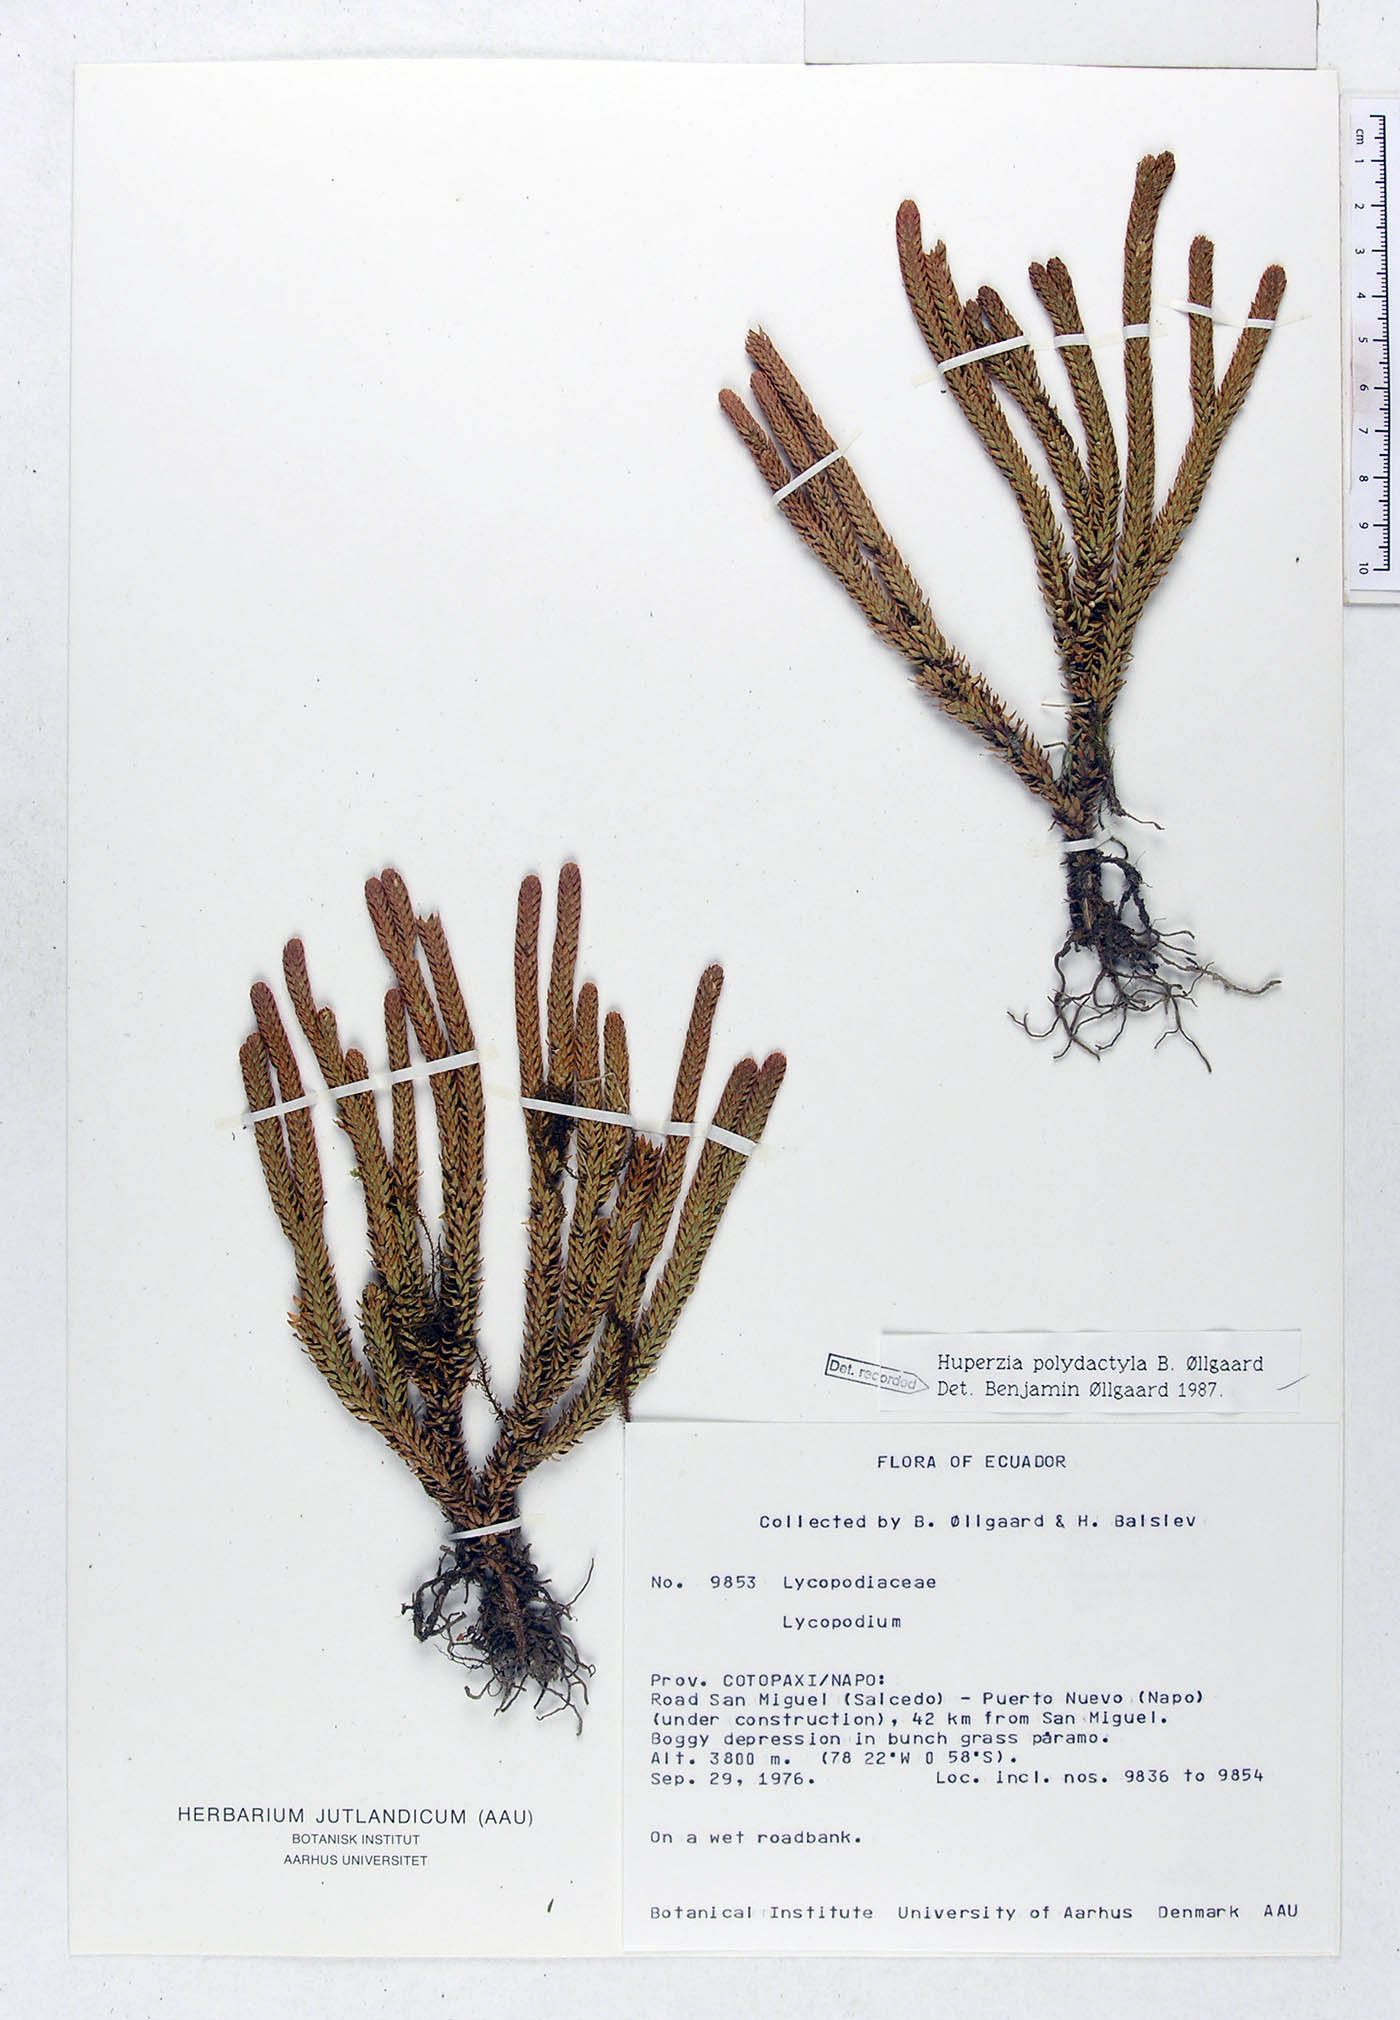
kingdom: Plantae
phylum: Tracheophyta
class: Lycopodiopsida
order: Lycopodiales
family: Lycopodiaceae
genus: Phlegmariurus
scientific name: Phlegmariurus polydactylus
